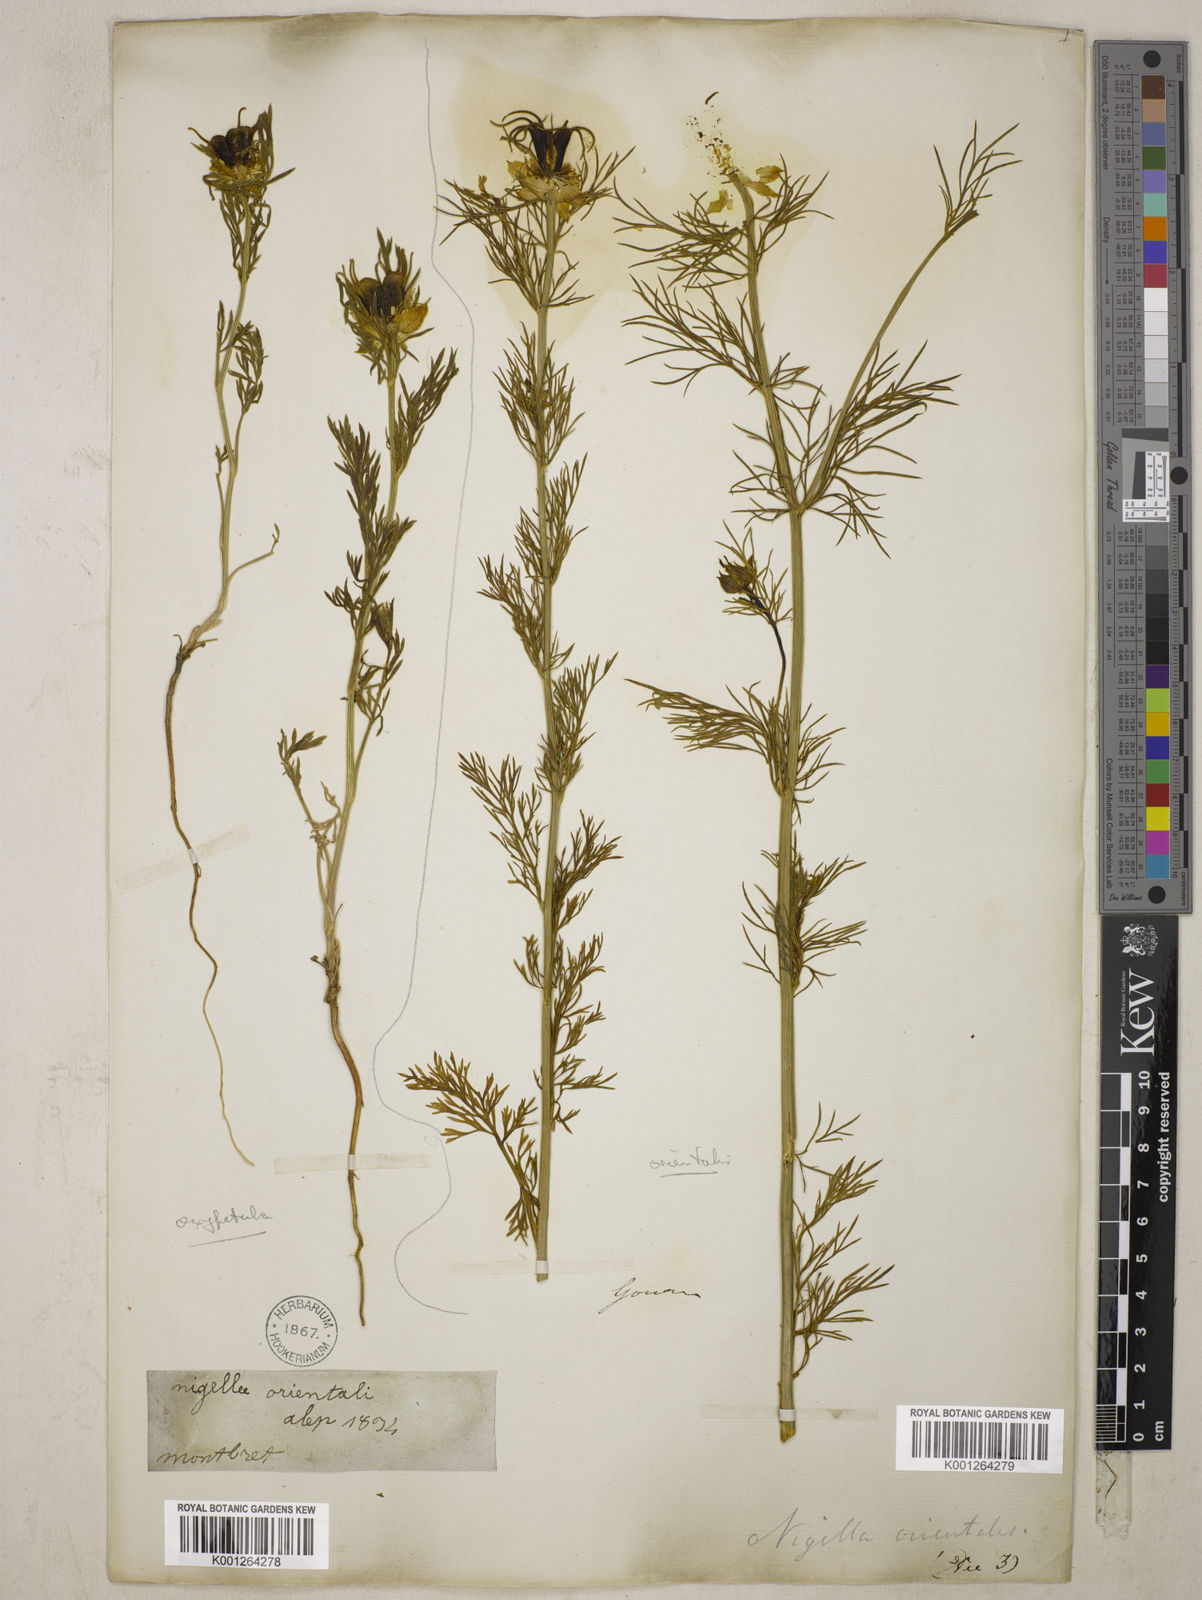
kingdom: Plantae
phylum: Tracheophyta
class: Magnoliopsida
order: Ranunculales
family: Ranunculaceae
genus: Nigella
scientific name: Nigella oxypetala
